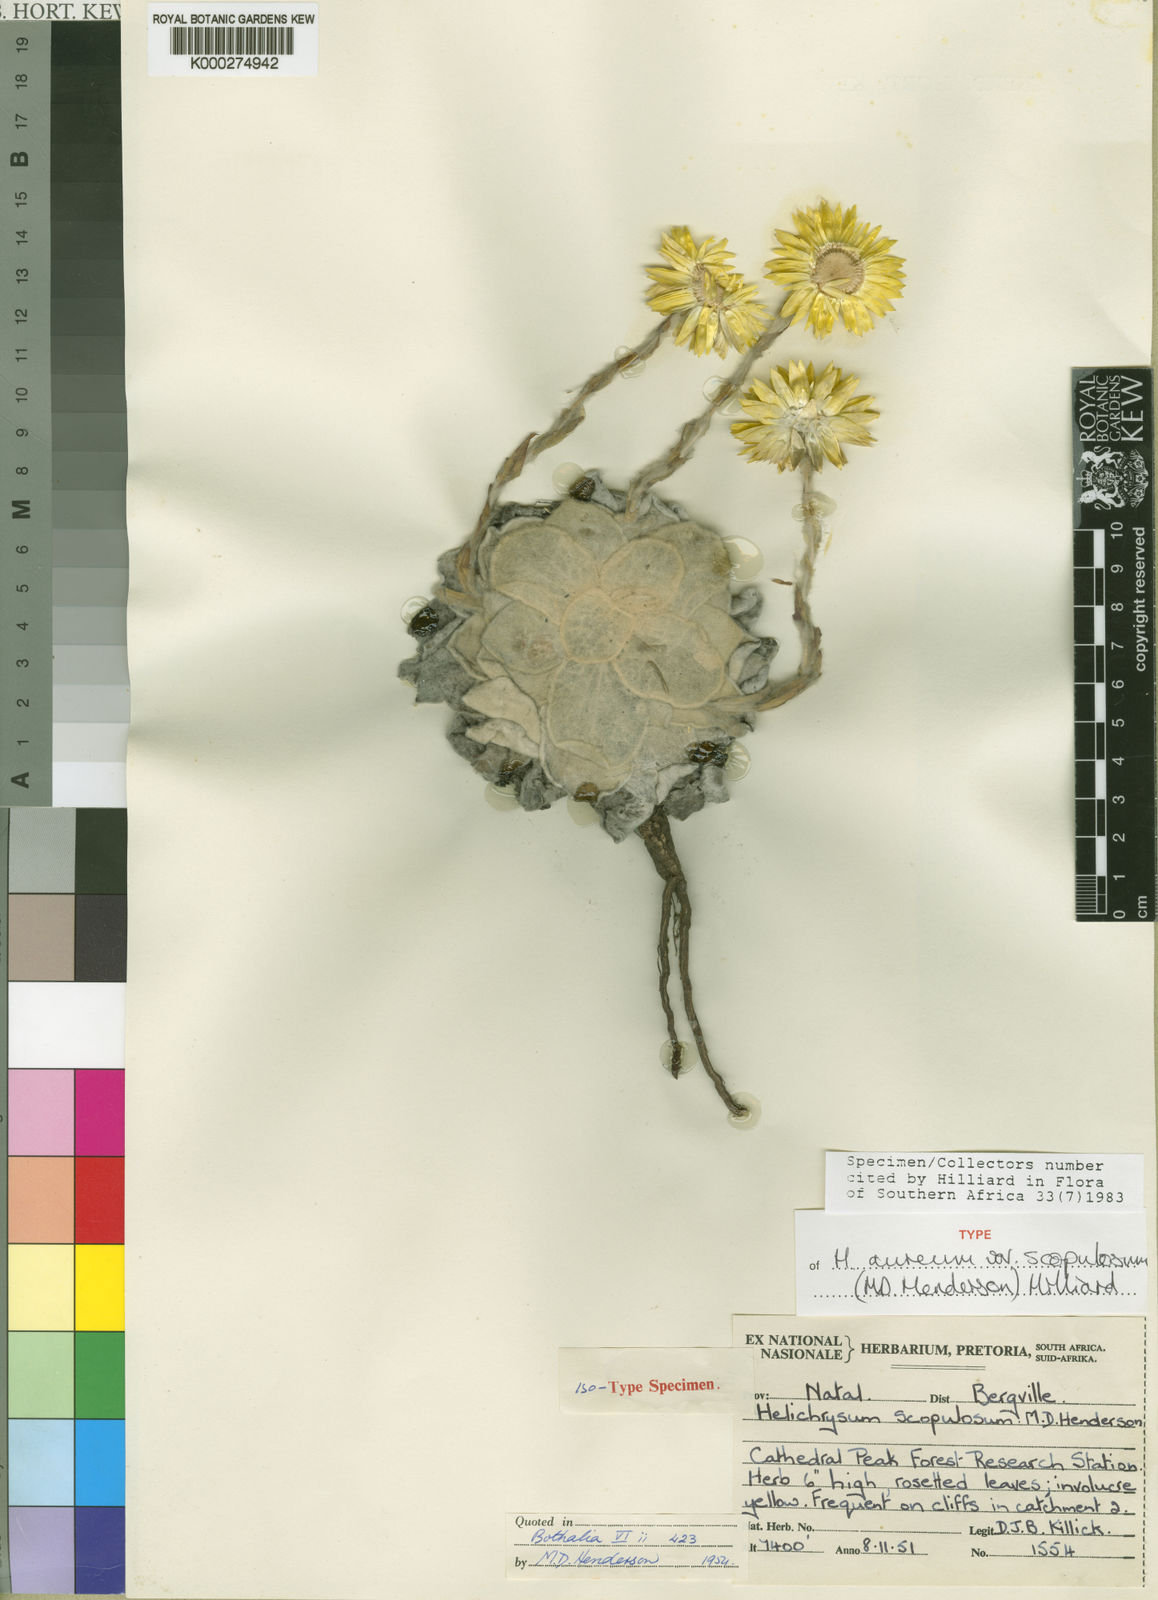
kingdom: Plantae
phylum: Tracheophyta
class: Magnoliopsida
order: Asterales
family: Asteraceae
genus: Helichrysum
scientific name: Helichrysum aureum
